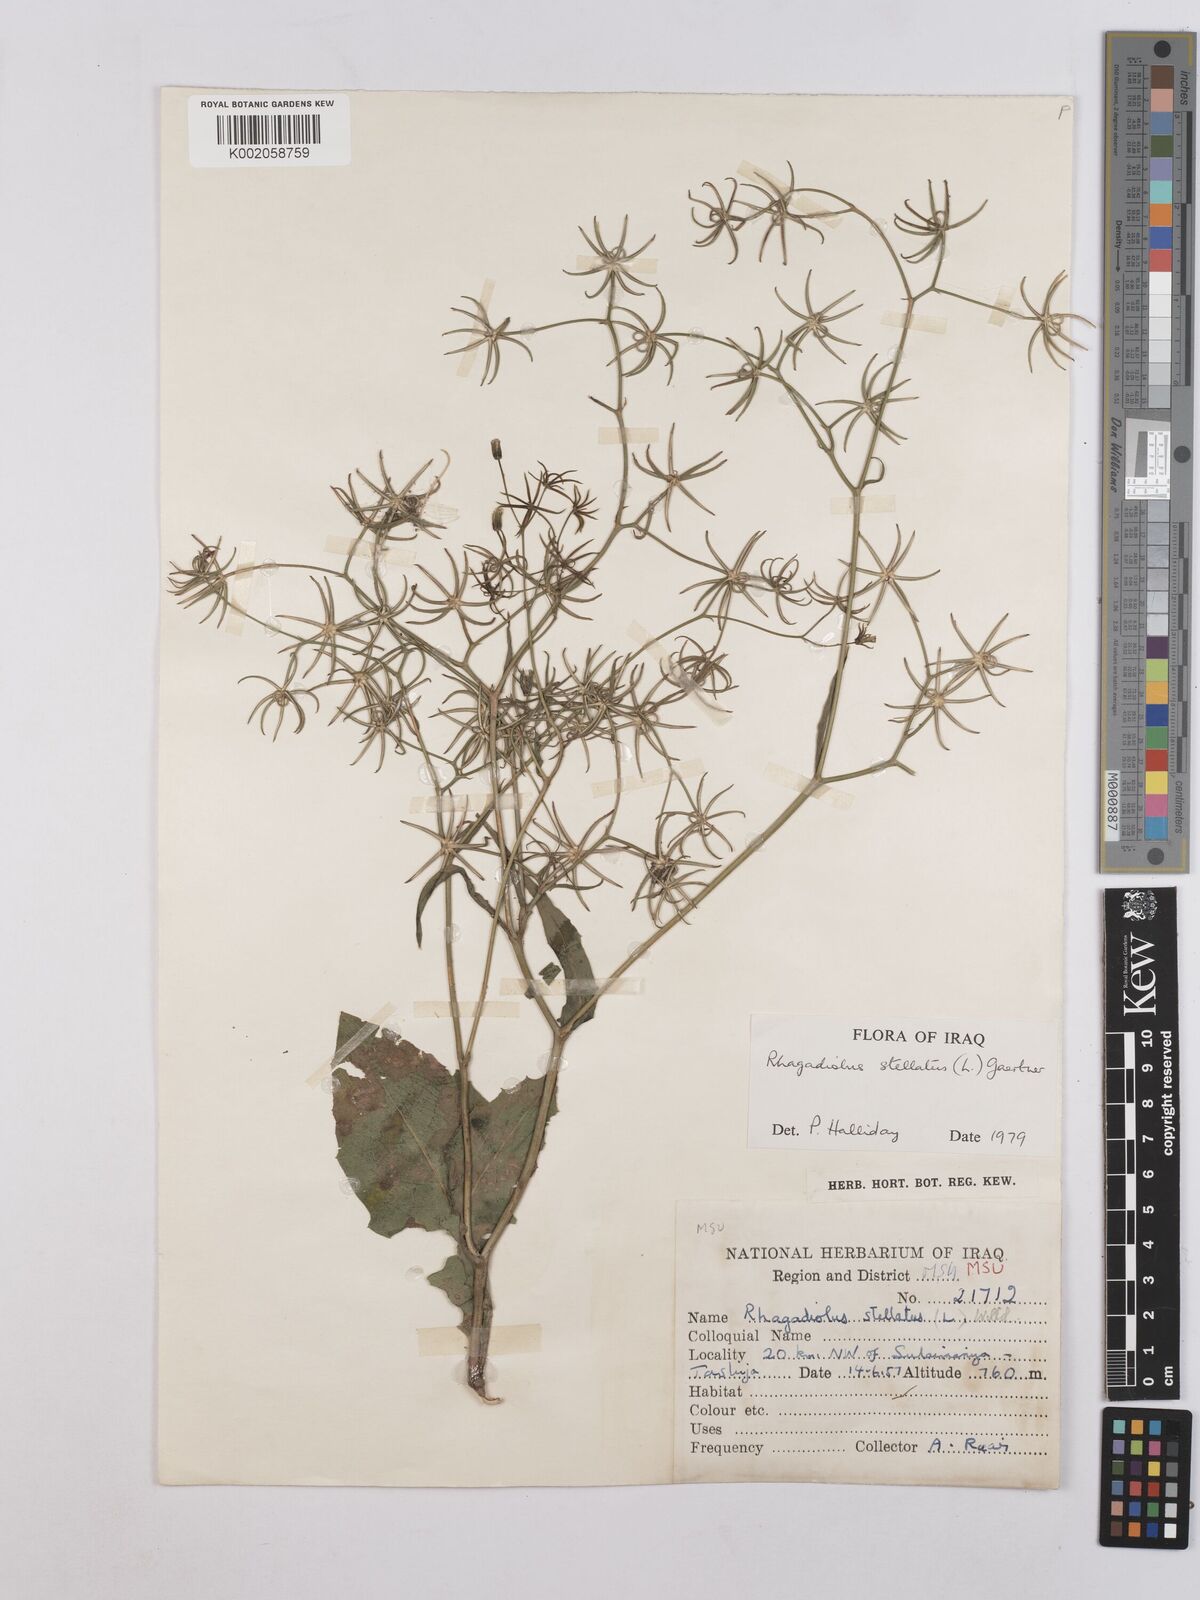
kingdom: Plantae
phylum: Tracheophyta
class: Magnoliopsida
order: Asterales
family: Asteraceae
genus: Rhagadiolus
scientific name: Rhagadiolus stellatus
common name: Star hawkbit
